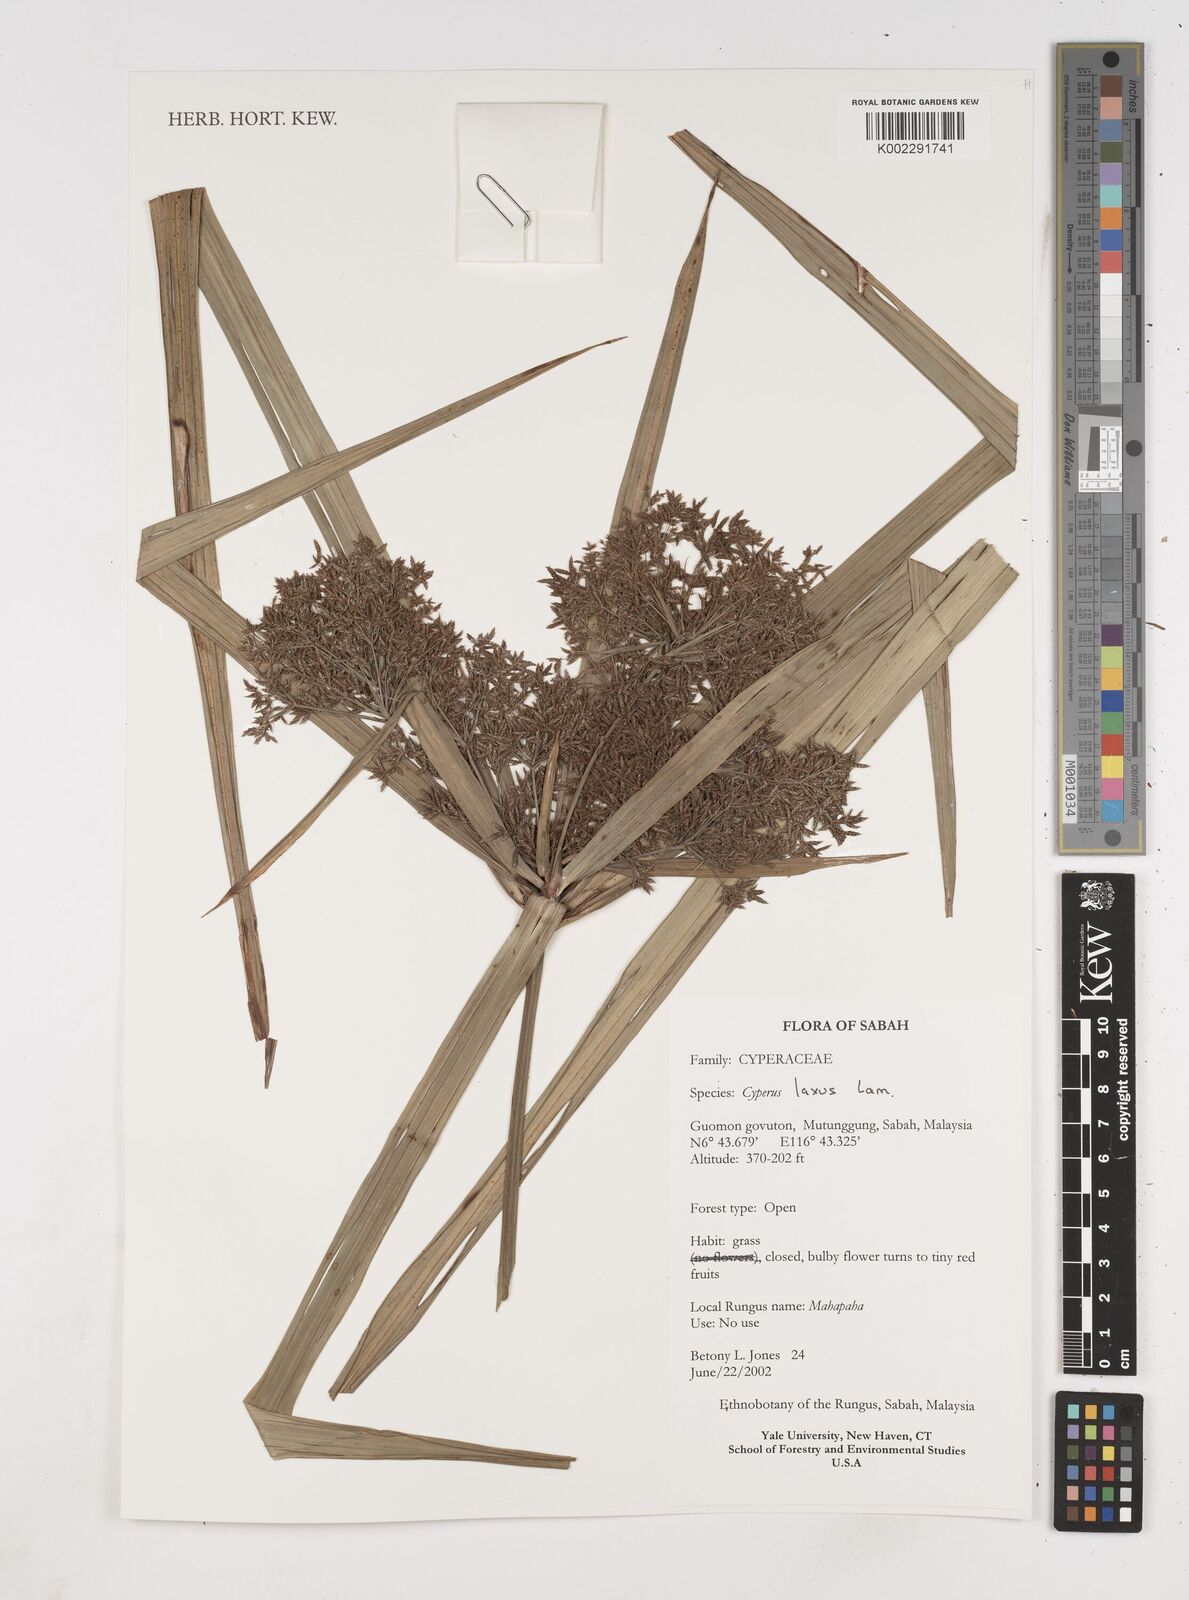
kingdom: Plantae
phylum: Tracheophyta
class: Liliopsida
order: Poales
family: Cyperaceae
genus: Cyperus
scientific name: Cyperus diffusus
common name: Dwarf umbrella grass
